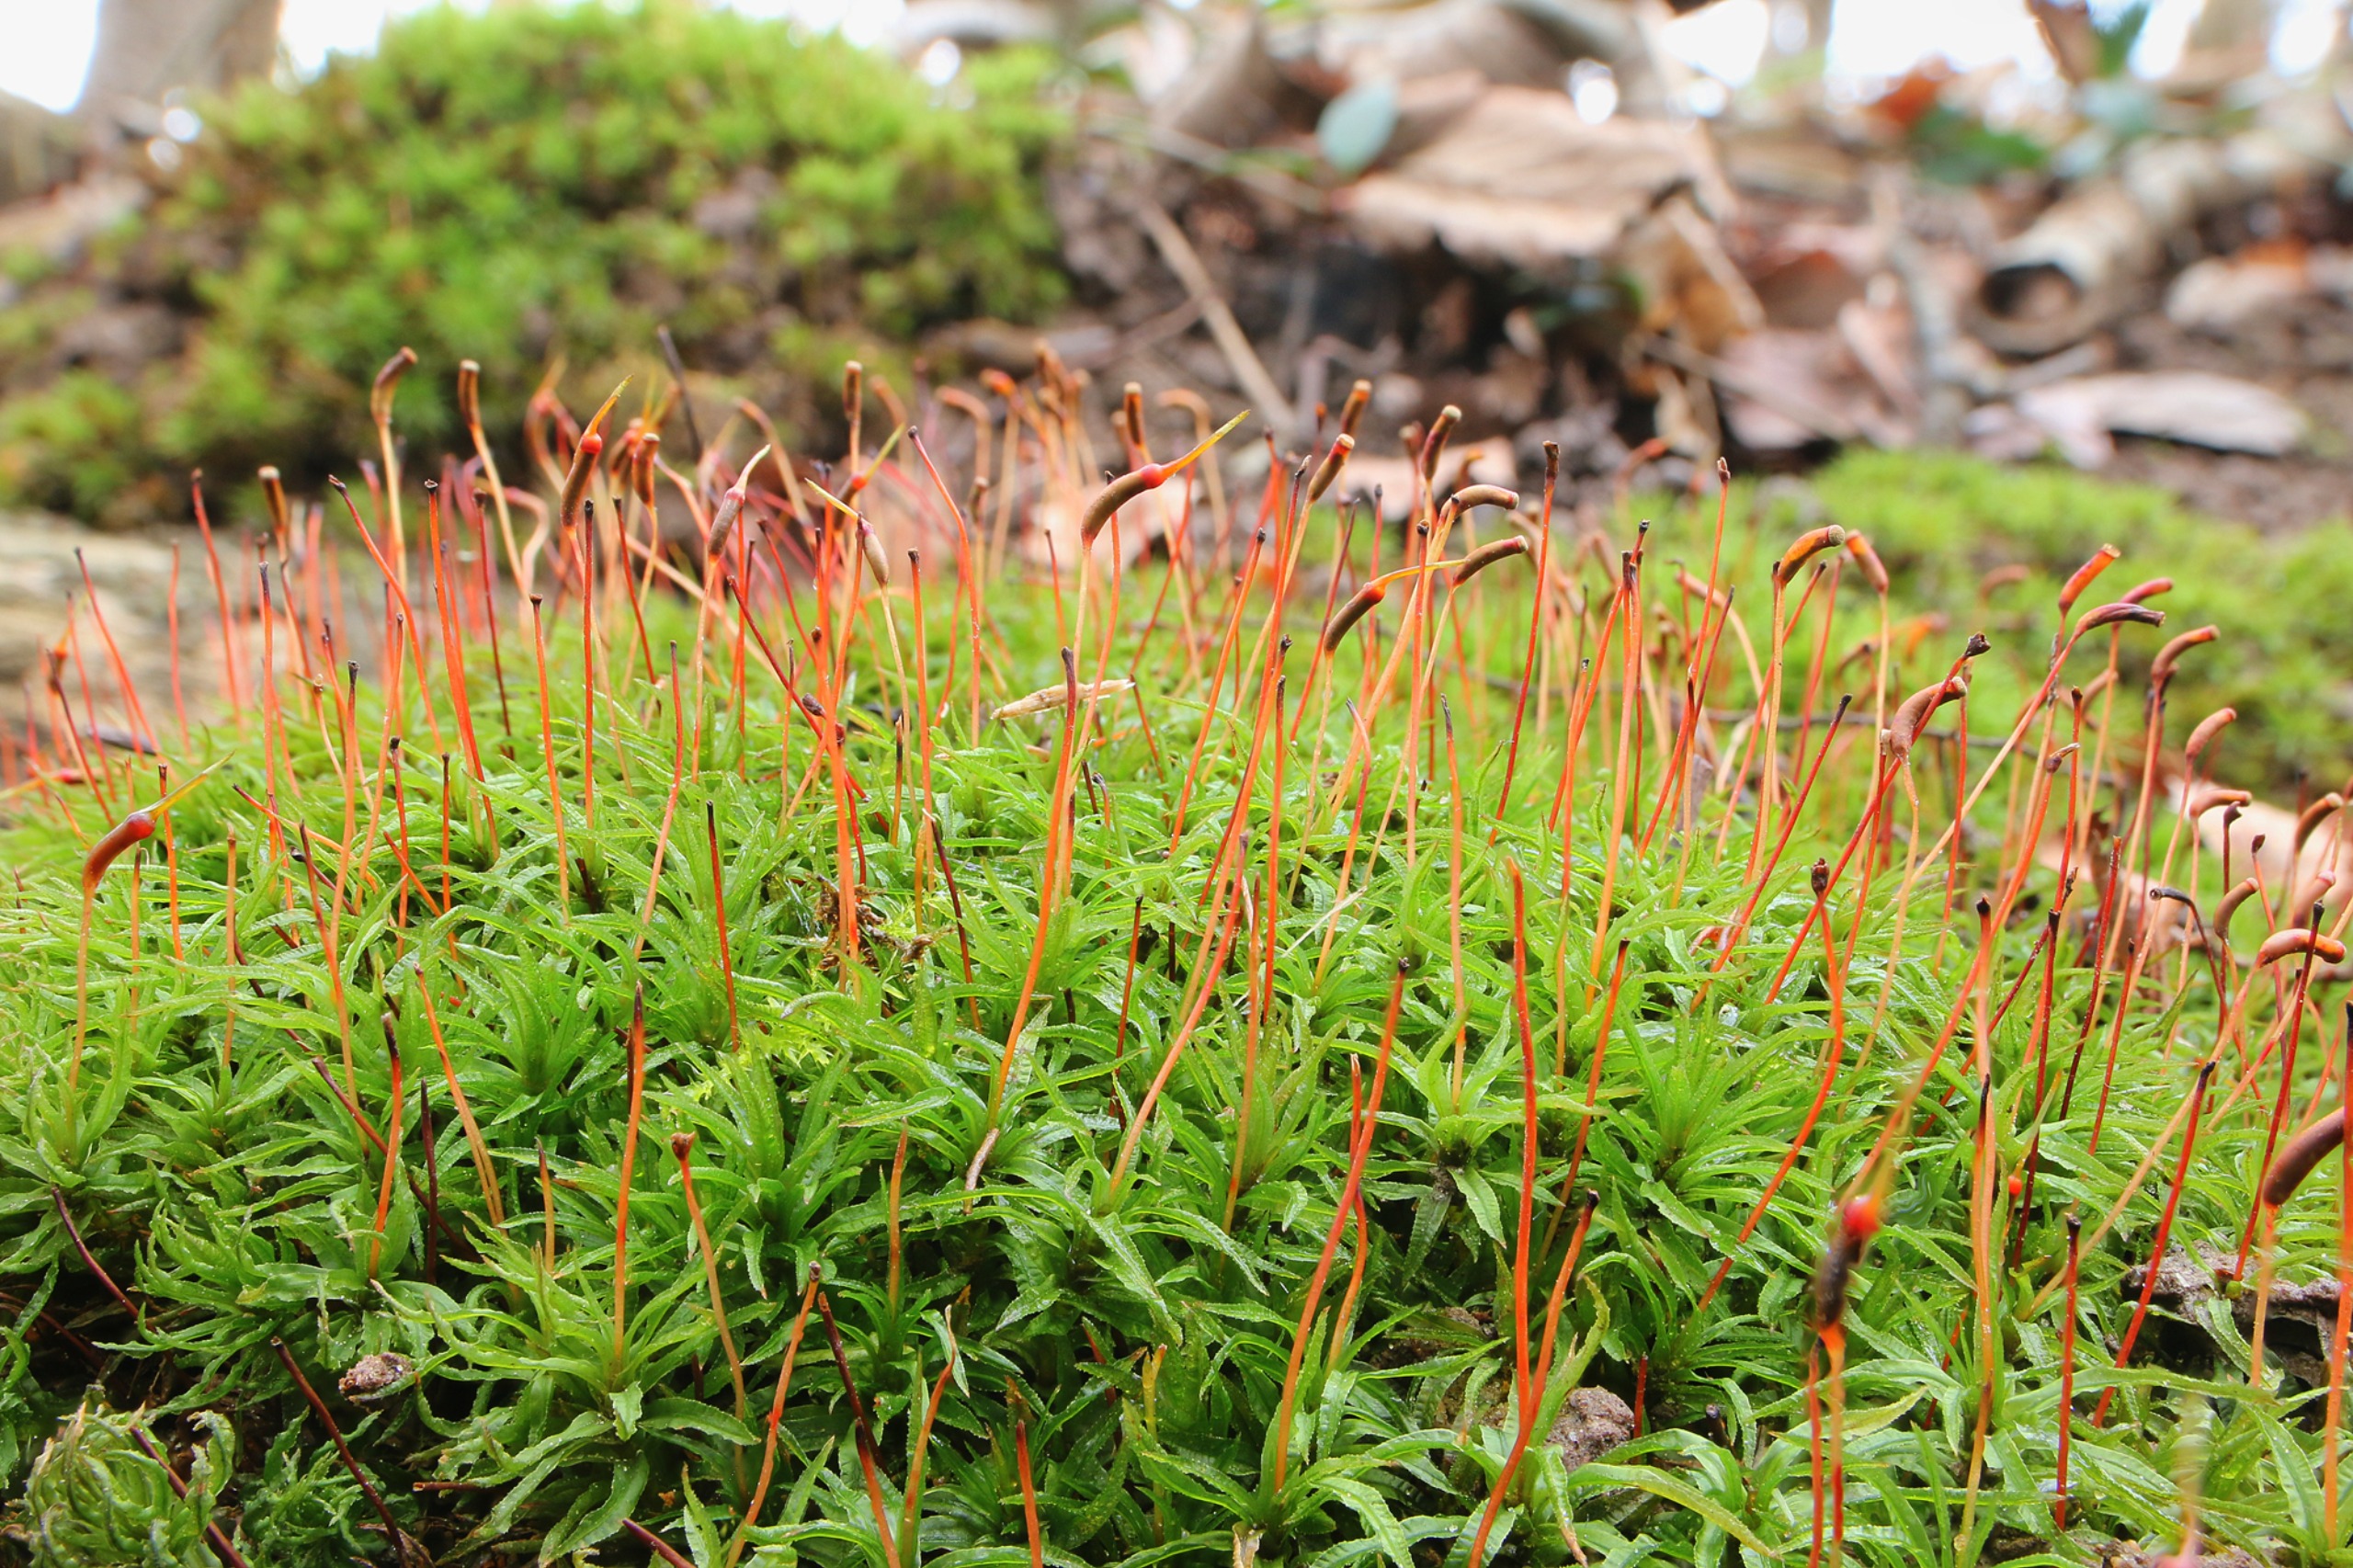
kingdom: Plantae
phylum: Bryophyta
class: Polytrichopsida
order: Polytrichales
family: Polytrichaceae
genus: Atrichum
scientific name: Atrichum undulatum
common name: Bølget katrinemos
